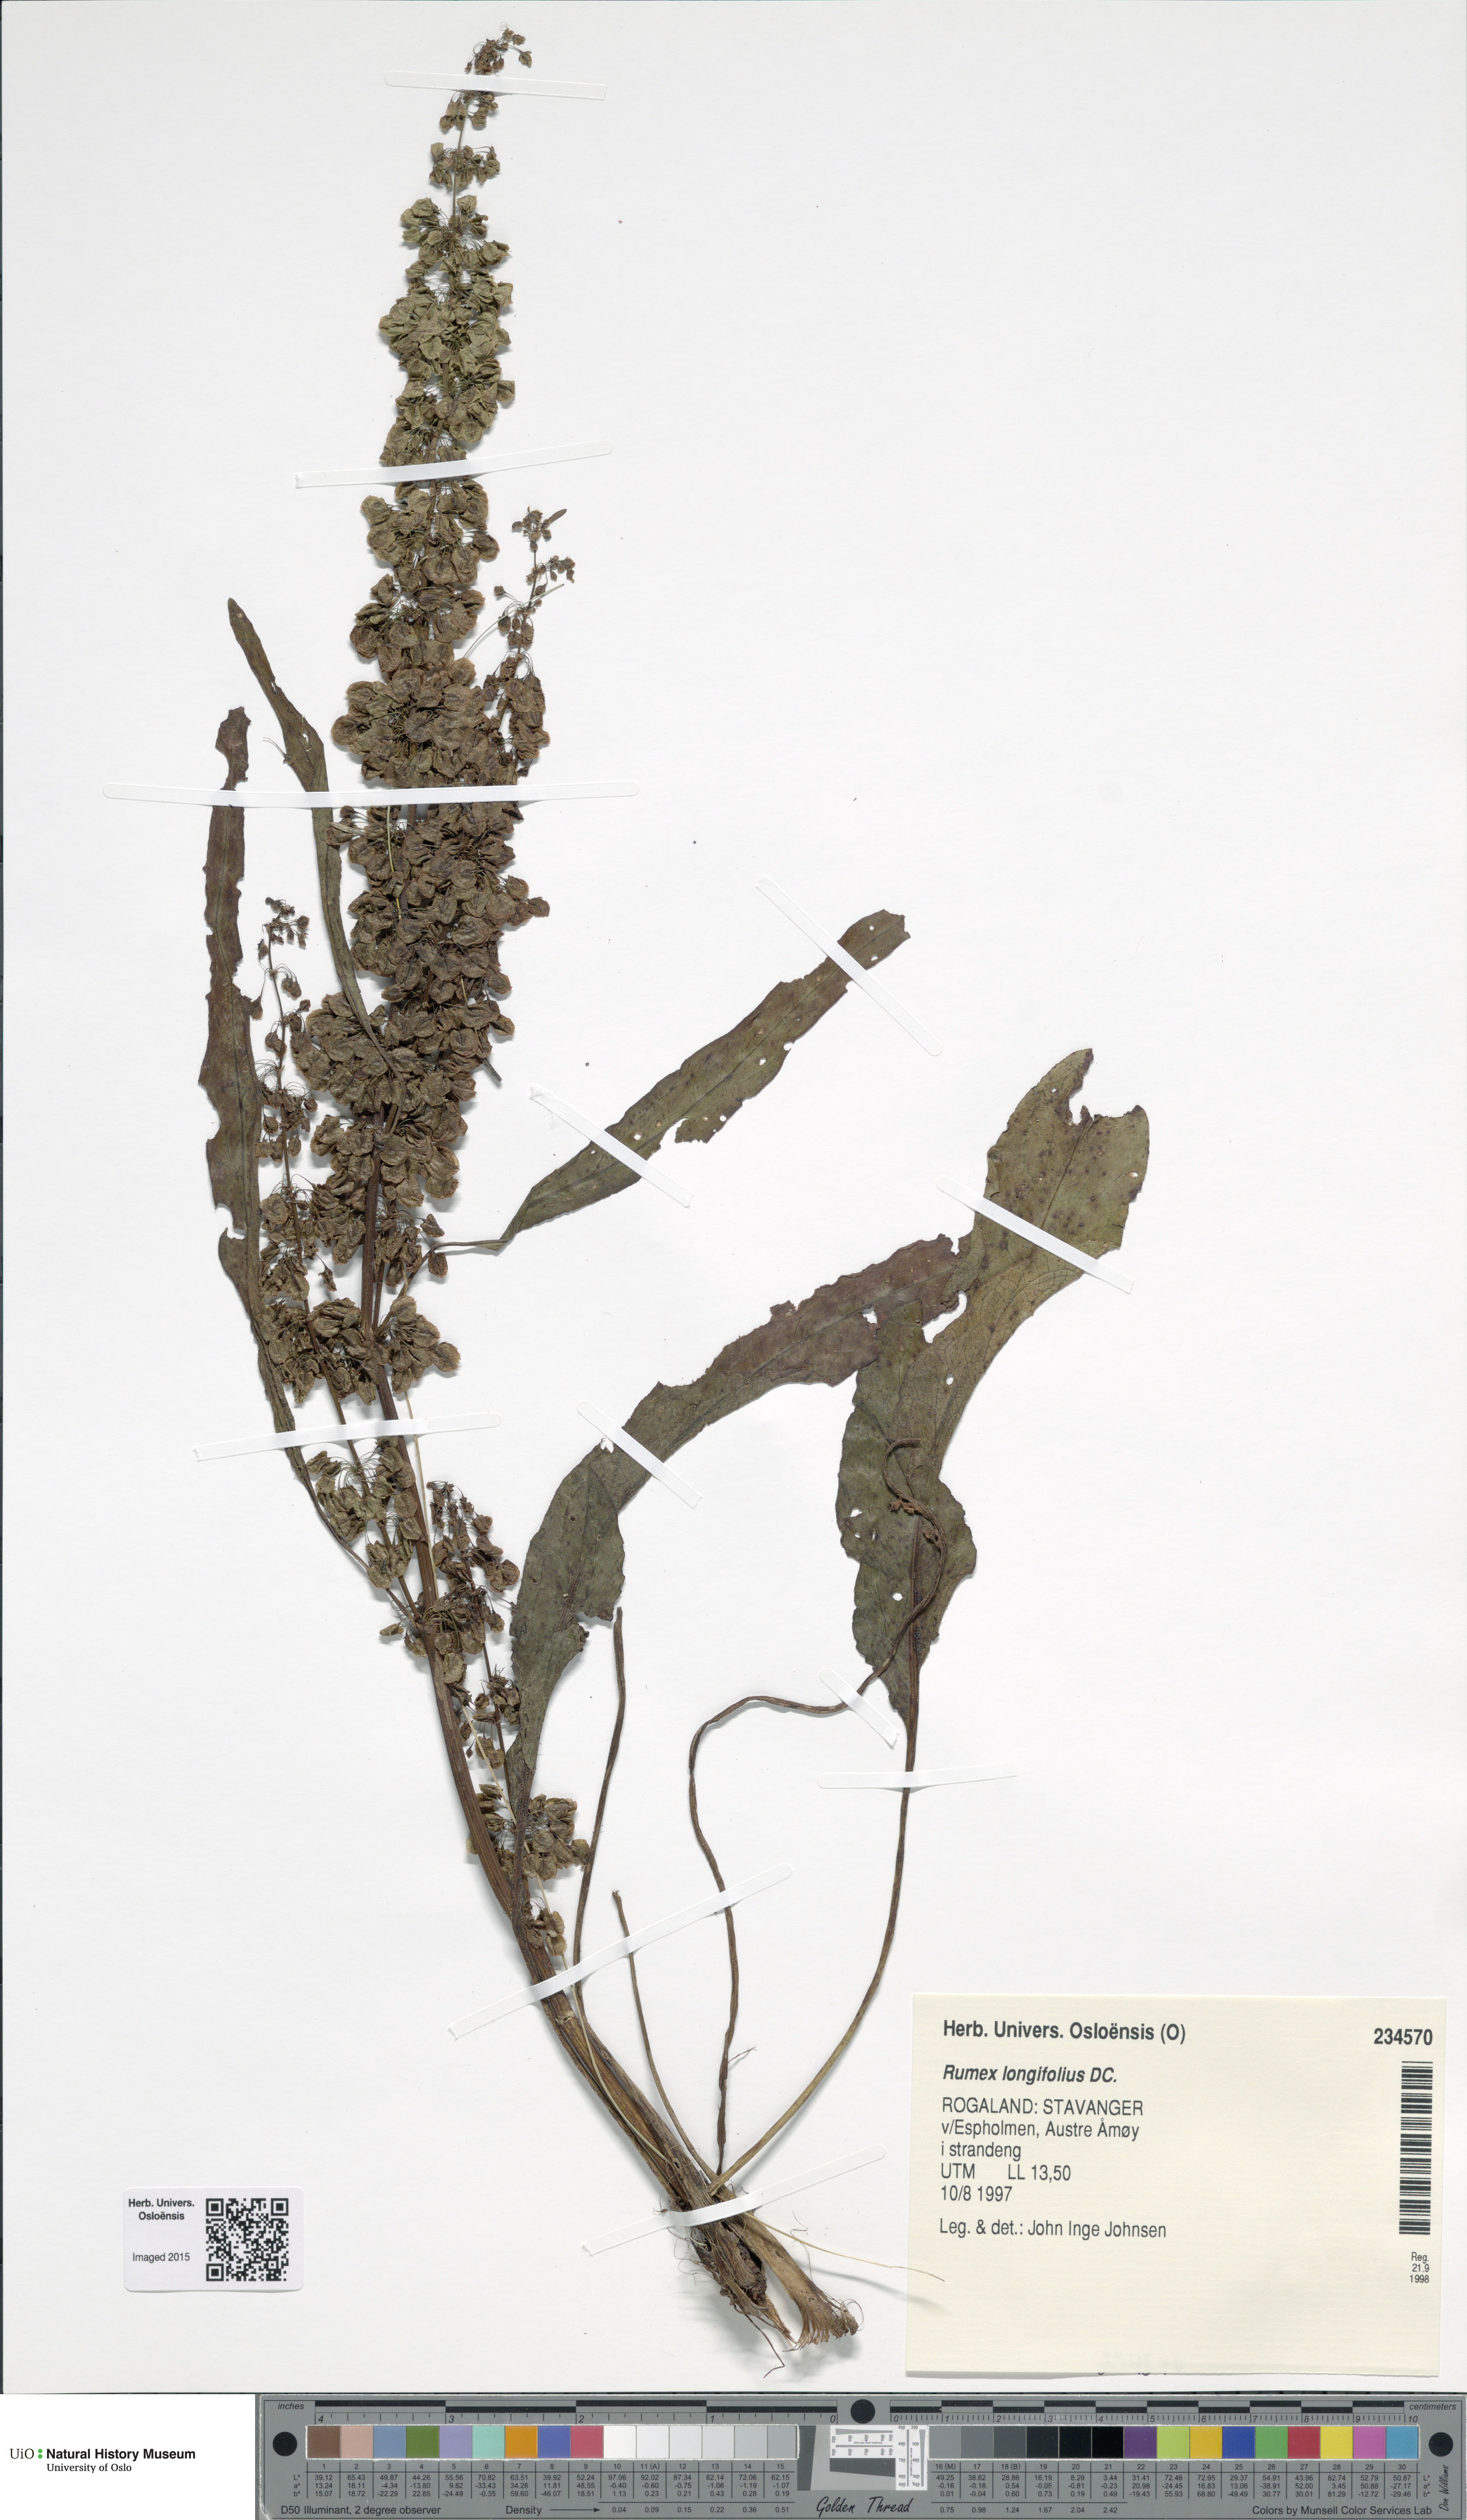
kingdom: Plantae
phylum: Tracheophyta
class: Magnoliopsida
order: Caryophyllales
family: Polygonaceae
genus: Rumex
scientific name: Rumex longifolius
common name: Dooryard dock
